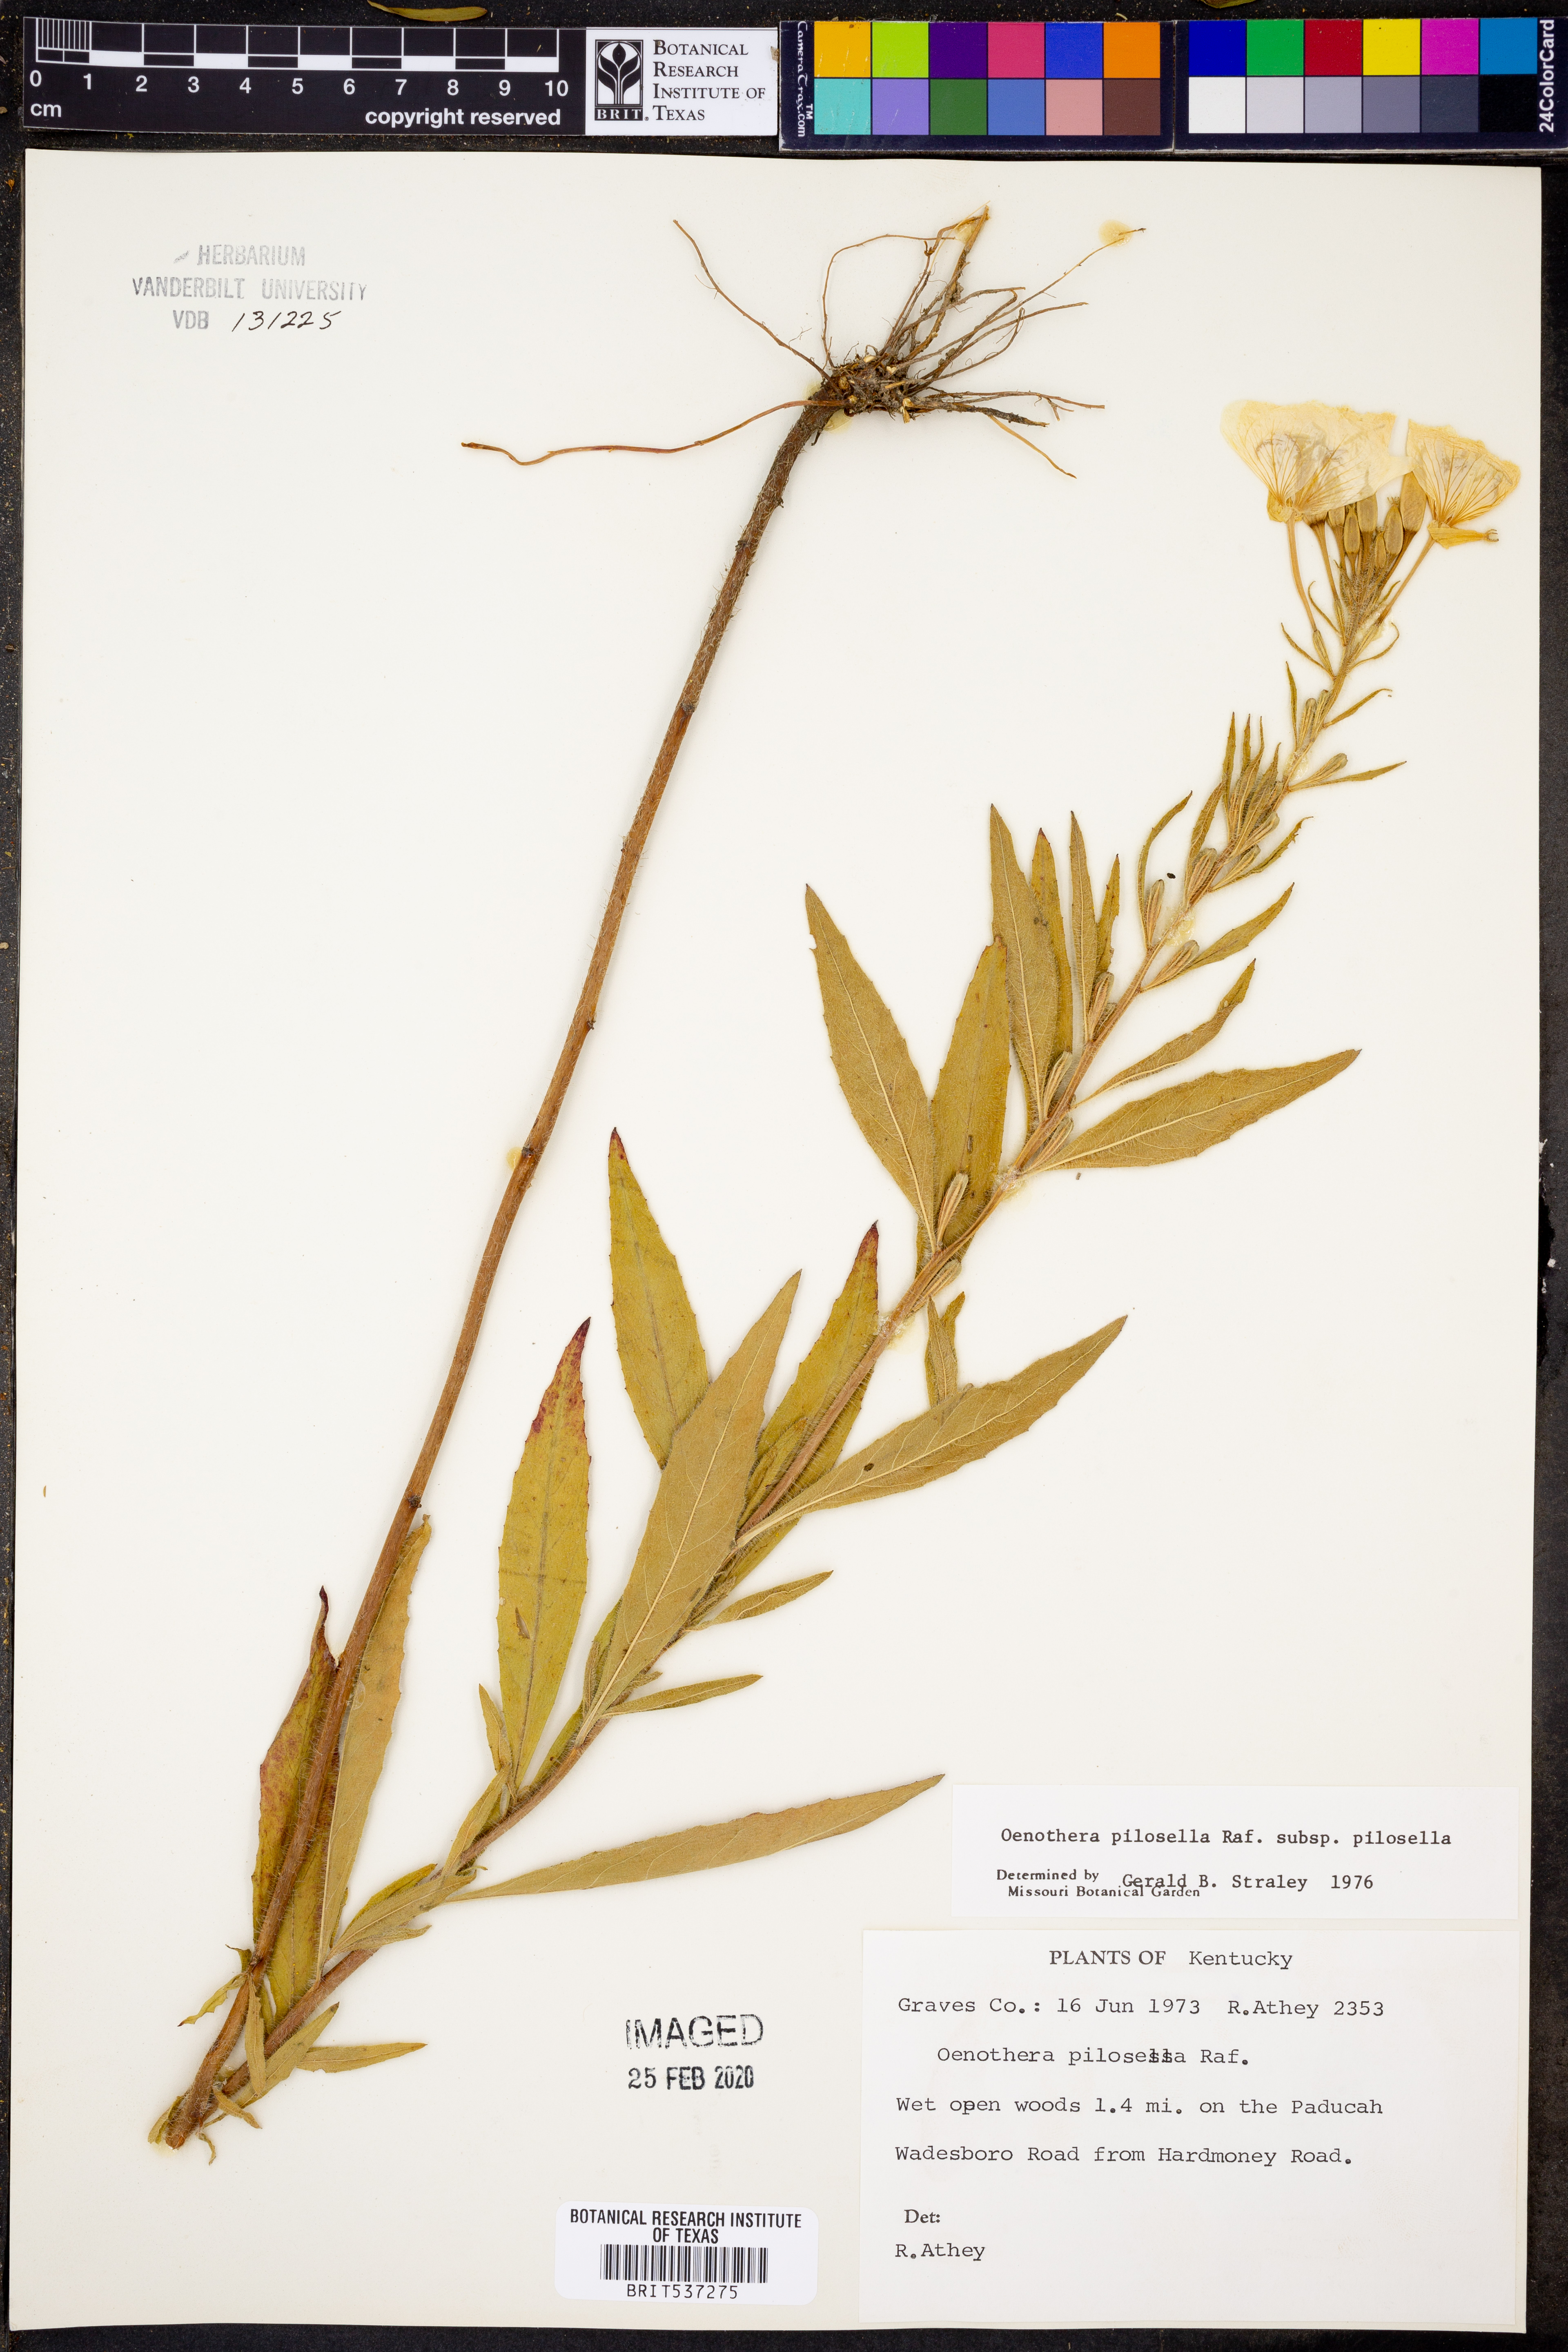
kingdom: Plantae
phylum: Tracheophyta
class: Magnoliopsida
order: Myrtales
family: Onagraceae
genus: Oenothera
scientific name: Oenothera pilosella
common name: Finely-pilose evening-primrose
